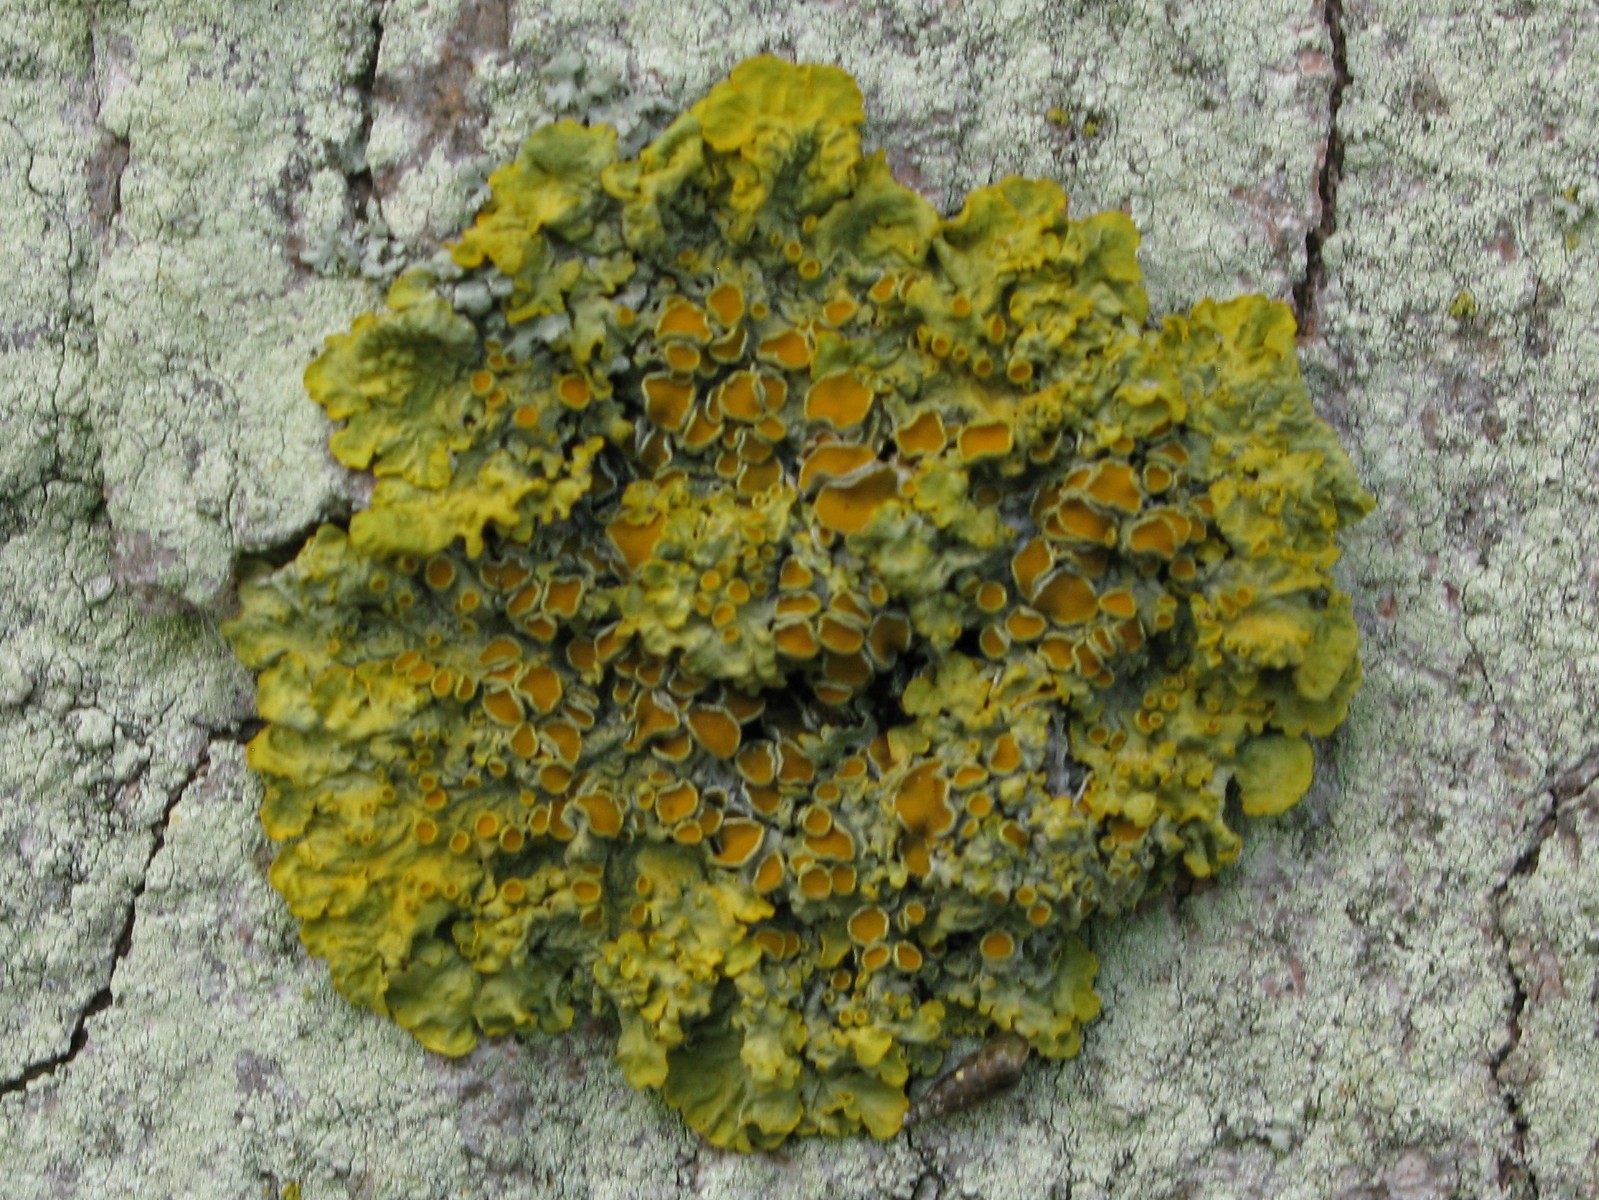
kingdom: Fungi
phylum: Ascomycota
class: Lecanoromycetes
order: Teloschistales
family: Teloschistaceae
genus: Xanthoria
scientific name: Xanthoria parietina
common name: almindelig væggelav
